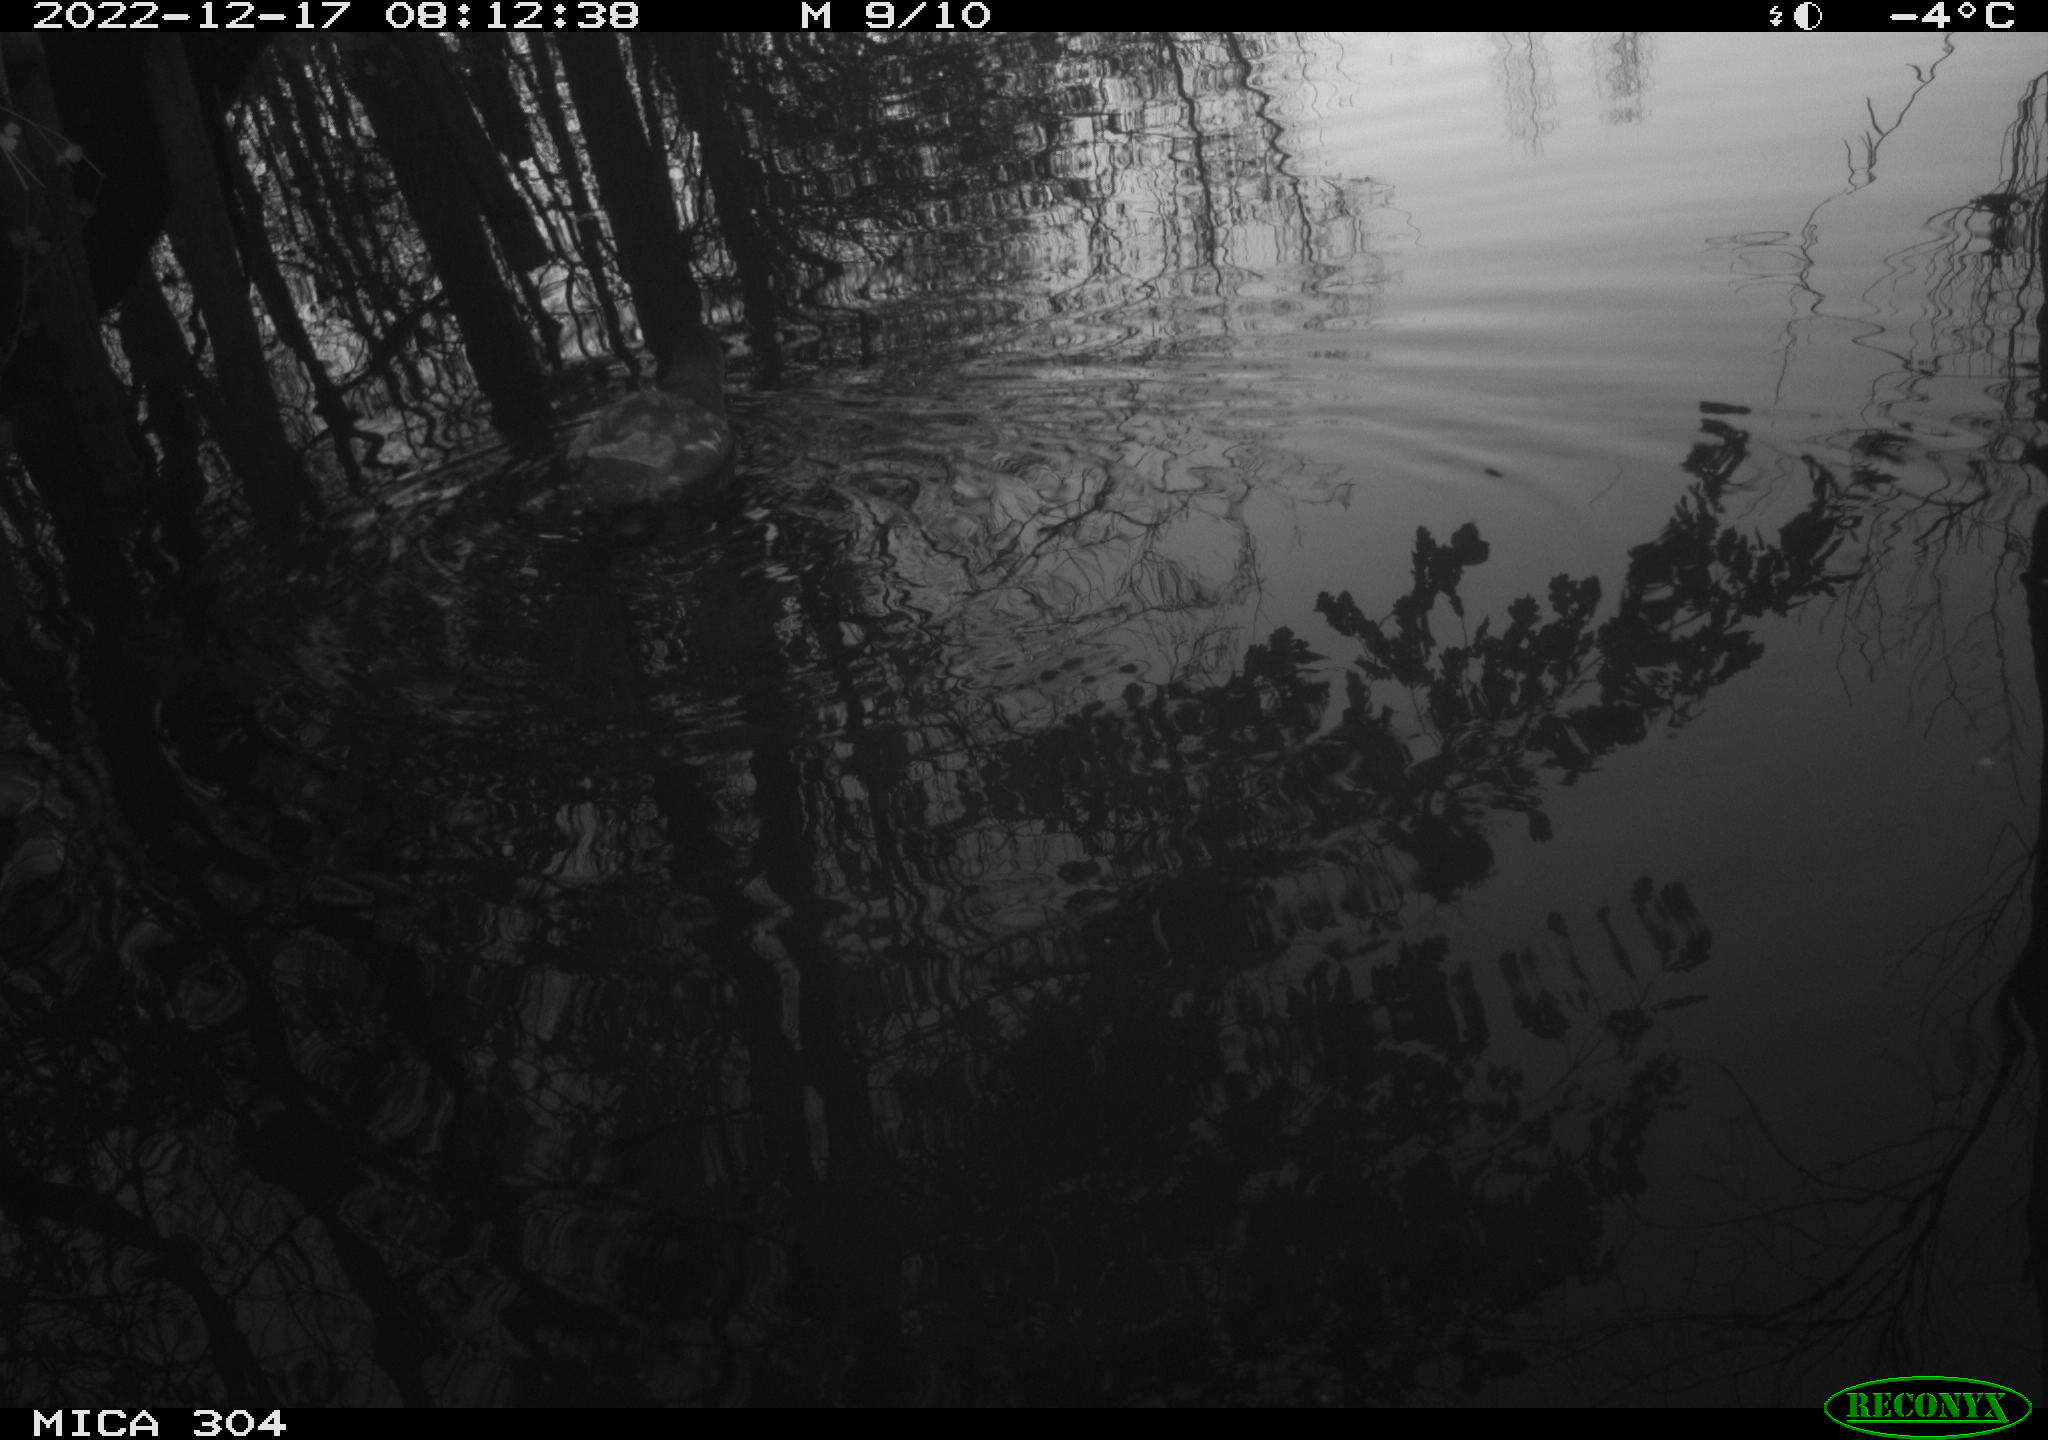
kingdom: Animalia
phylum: Chordata
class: Aves
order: Gruiformes
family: Rallidae
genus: Gallinula
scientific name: Gallinula chloropus
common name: Common moorhen
